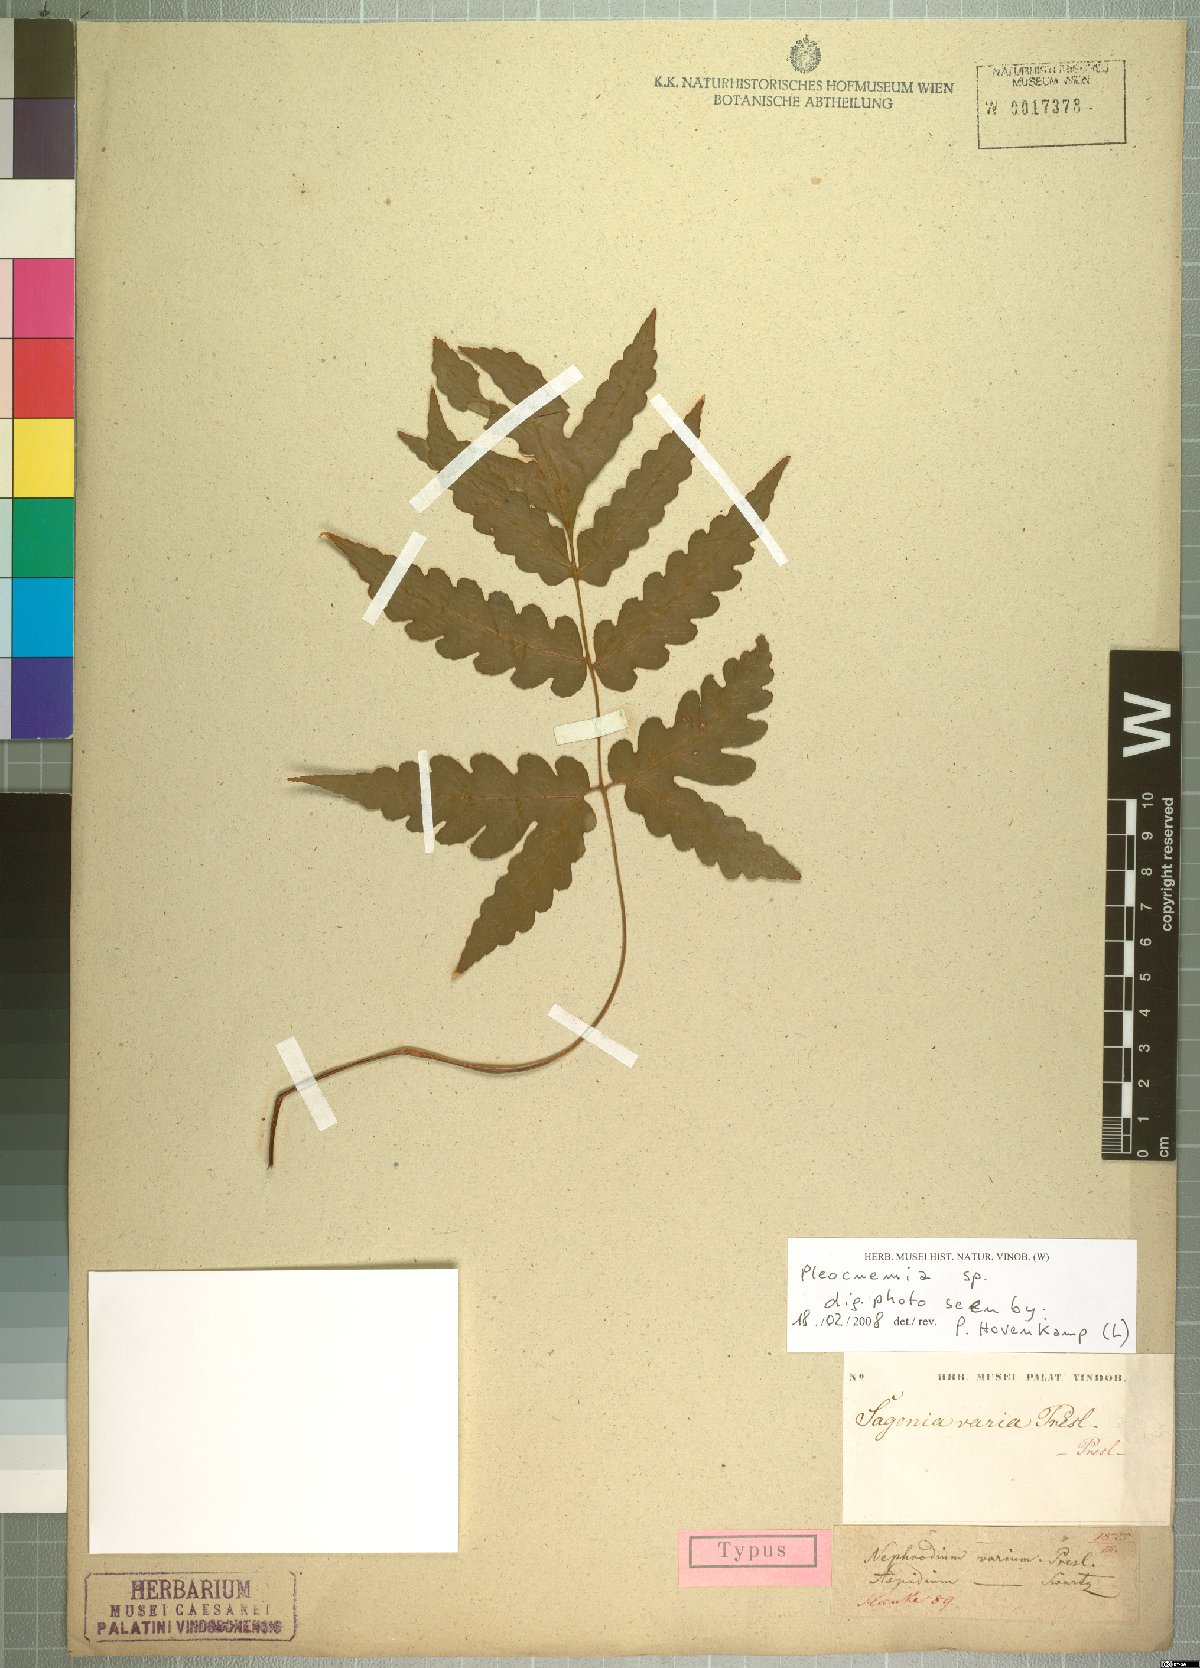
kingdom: Plantae
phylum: Tracheophyta
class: Polypodiopsida
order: Polypodiales
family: Dryopteridaceae
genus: Pleocnemia
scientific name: Pleocnemia
